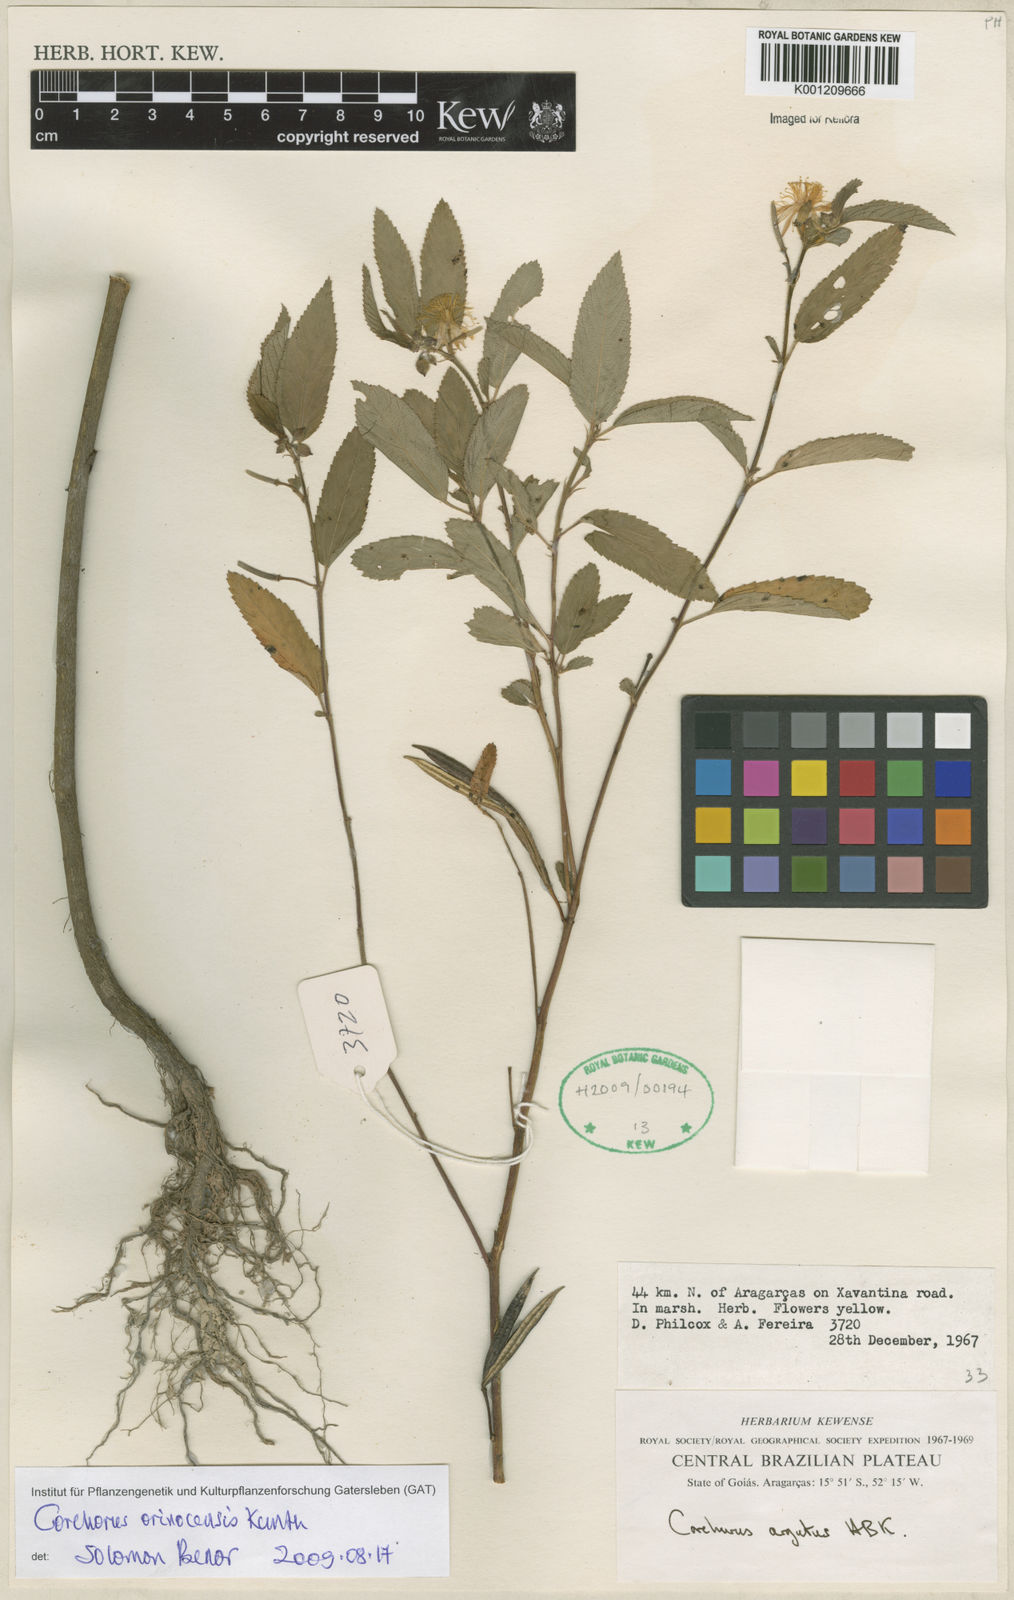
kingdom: Plantae
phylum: Tracheophyta
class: Magnoliopsida
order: Malvales
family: Malvaceae
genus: Corchorus
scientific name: Corchorus orinocensis
